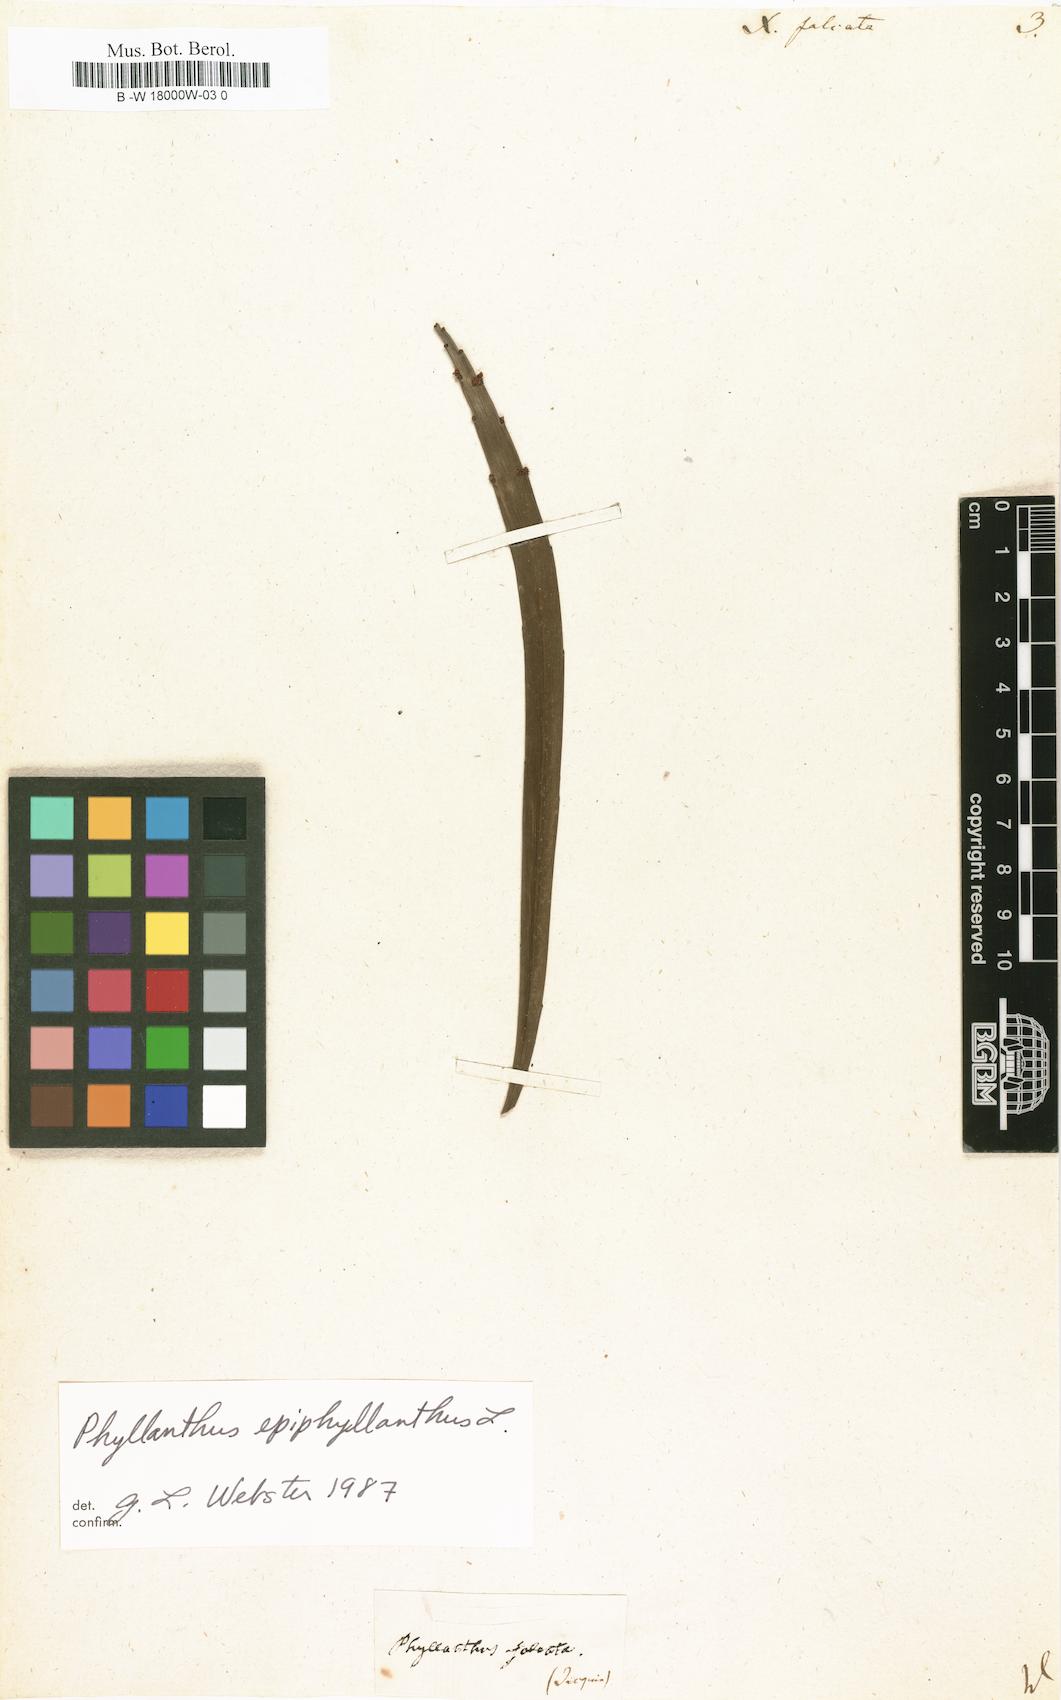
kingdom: Plantae
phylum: Tracheophyta
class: Magnoliopsida
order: Malpighiales
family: Phyllanthaceae
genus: Phyllanthus
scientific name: Phyllanthus epiphyllanthus
